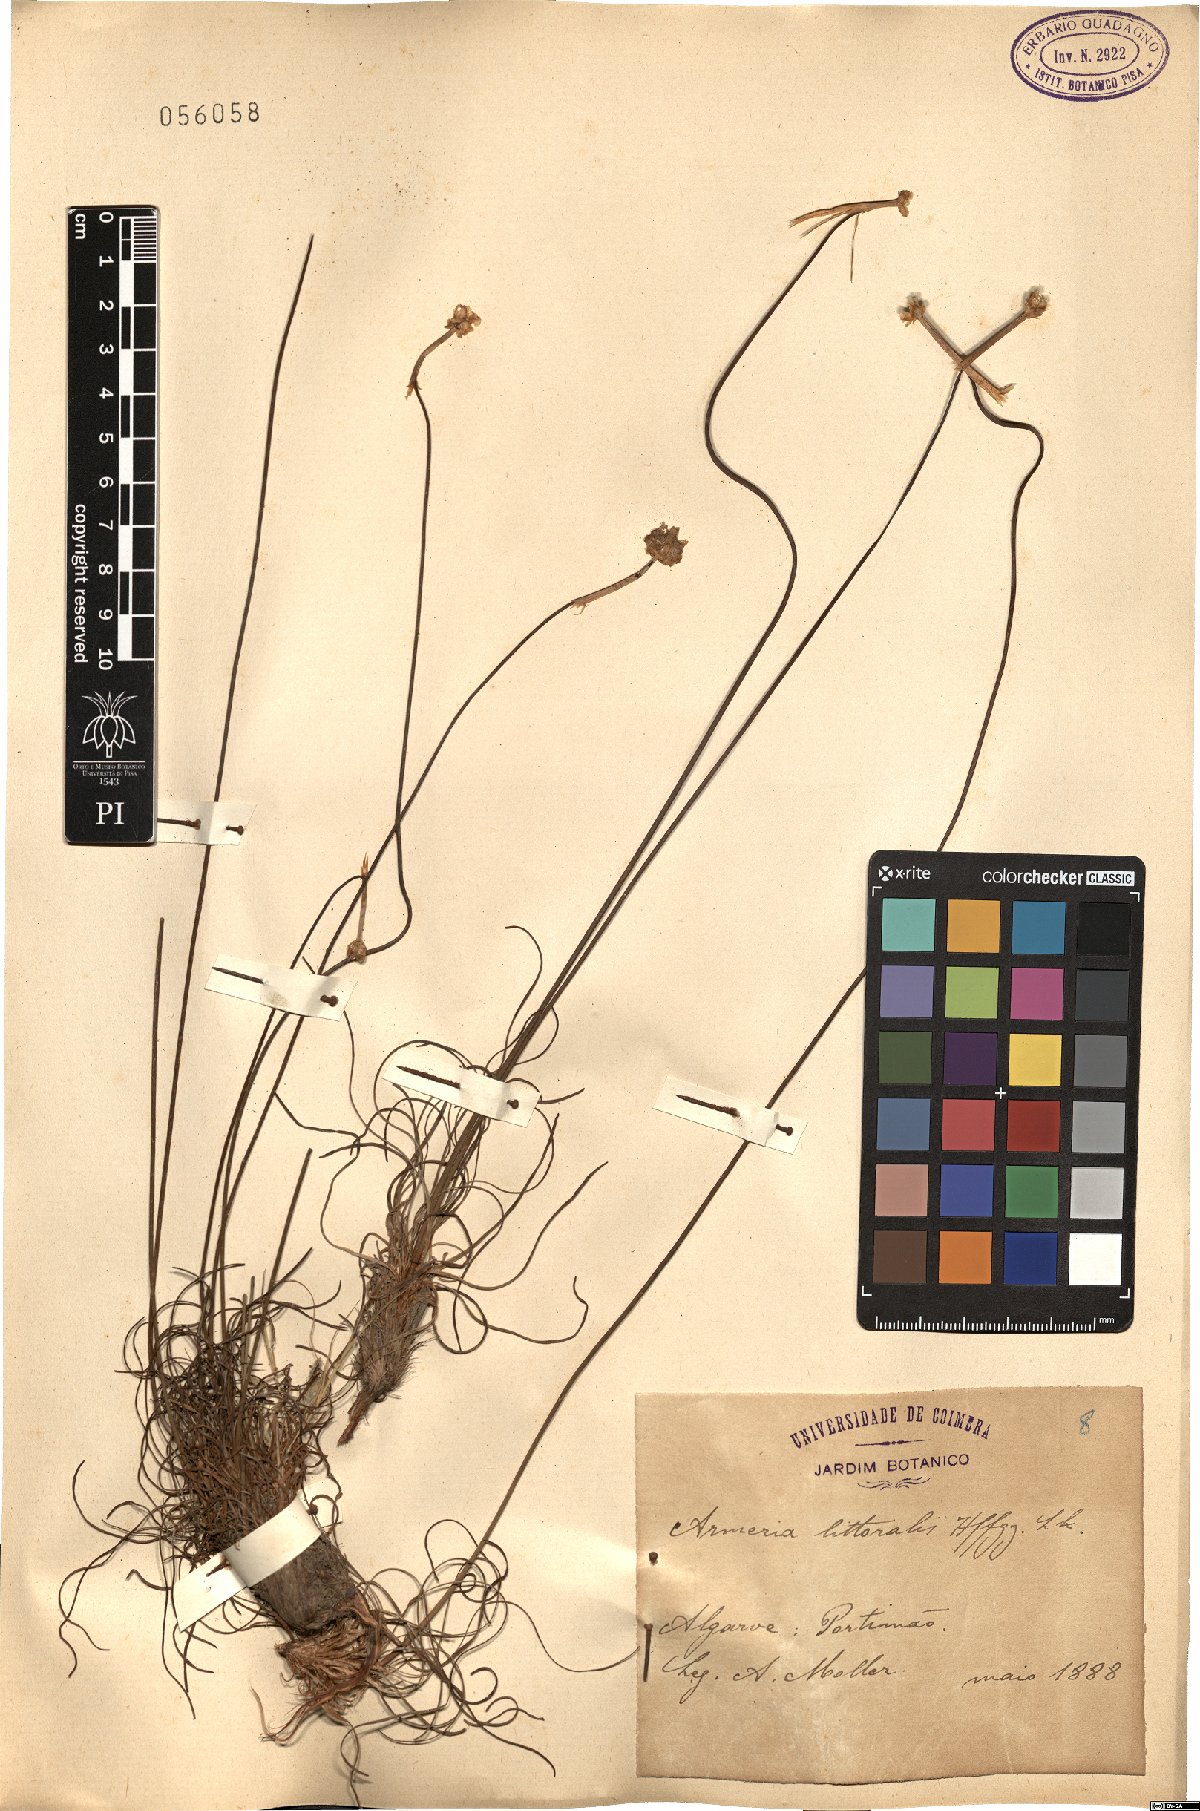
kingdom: Plantae
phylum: Tracheophyta
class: Magnoliopsida
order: Caryophyllales
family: Plumbaginaceae
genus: Armeria
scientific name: Armeria maritima
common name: Thrift
